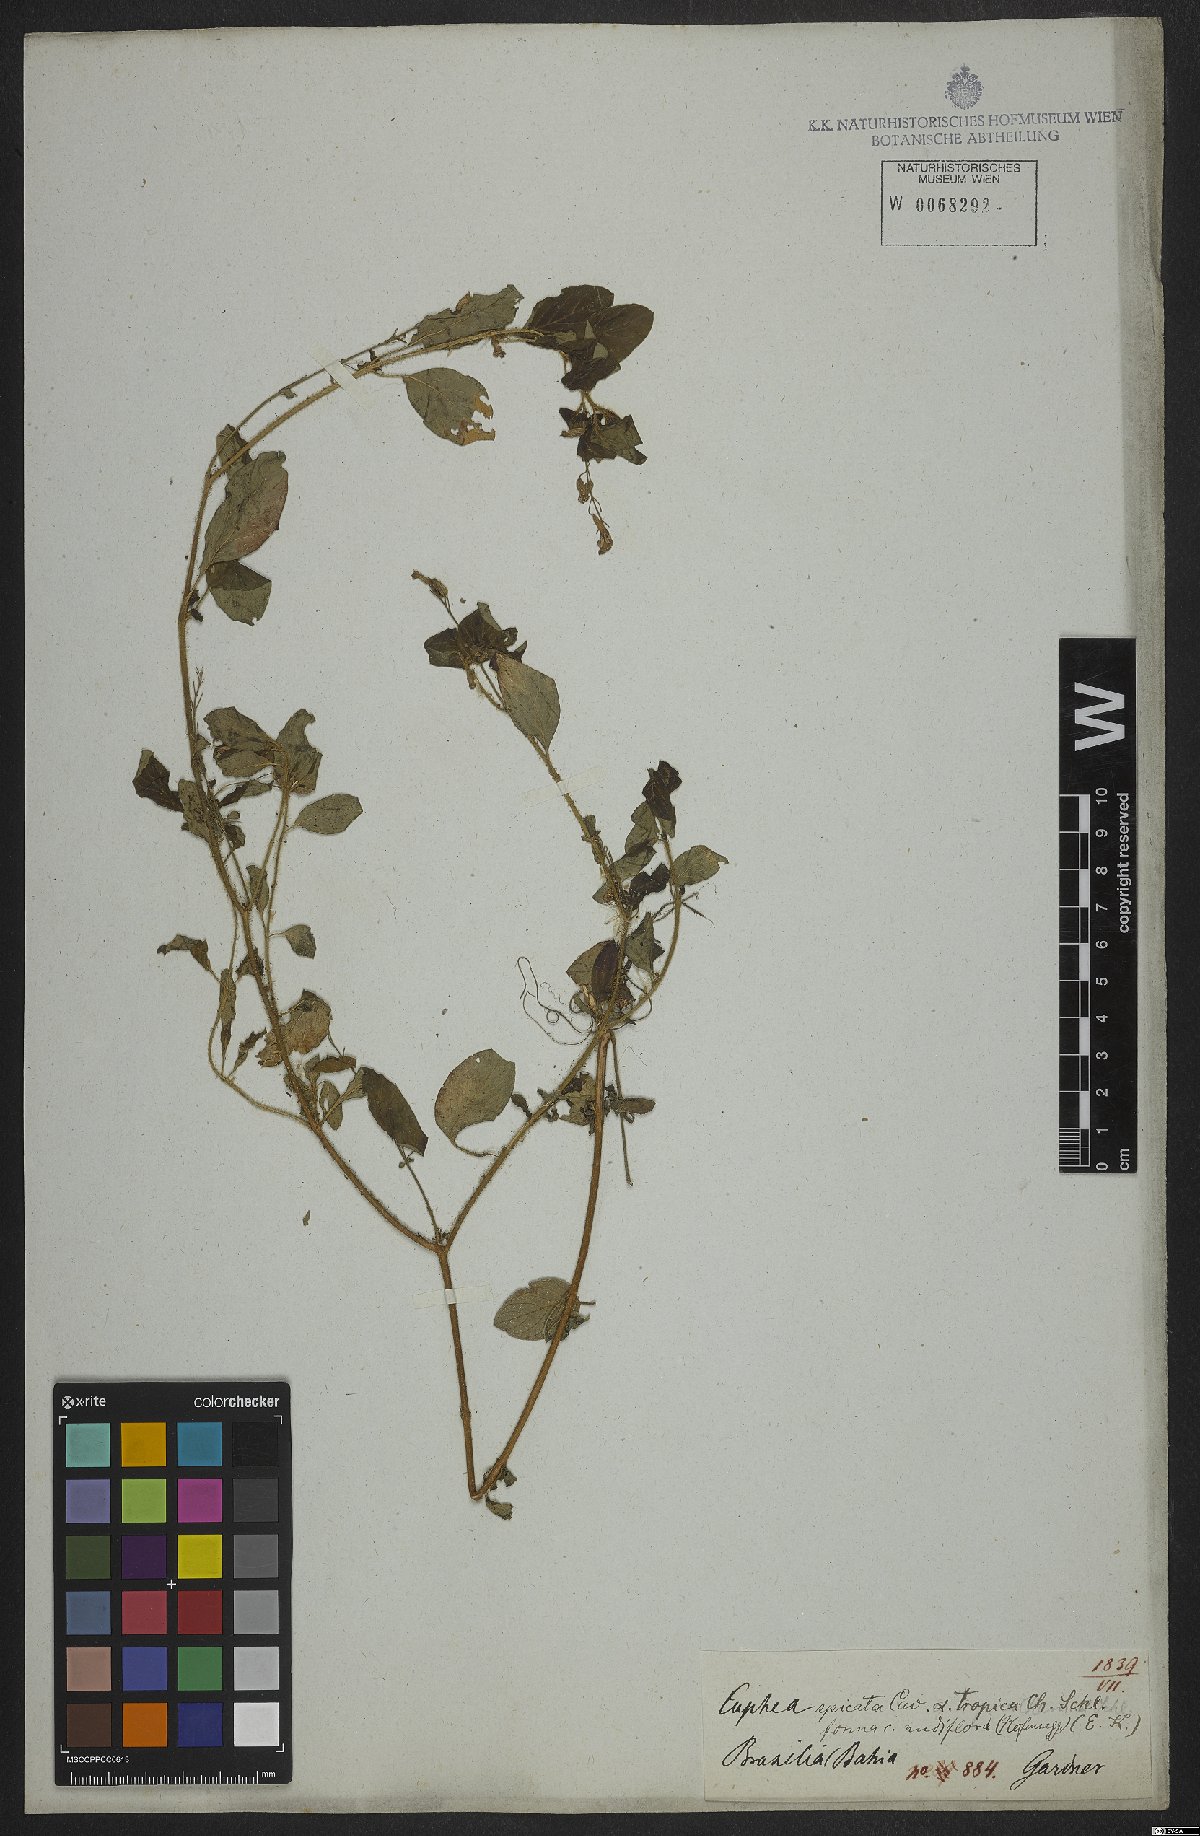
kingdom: Plantae
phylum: Tracheophyta
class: Magnoliopsida
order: Myrtales
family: Lythraceae
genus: Cuphea
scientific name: Cuphea racemosa
